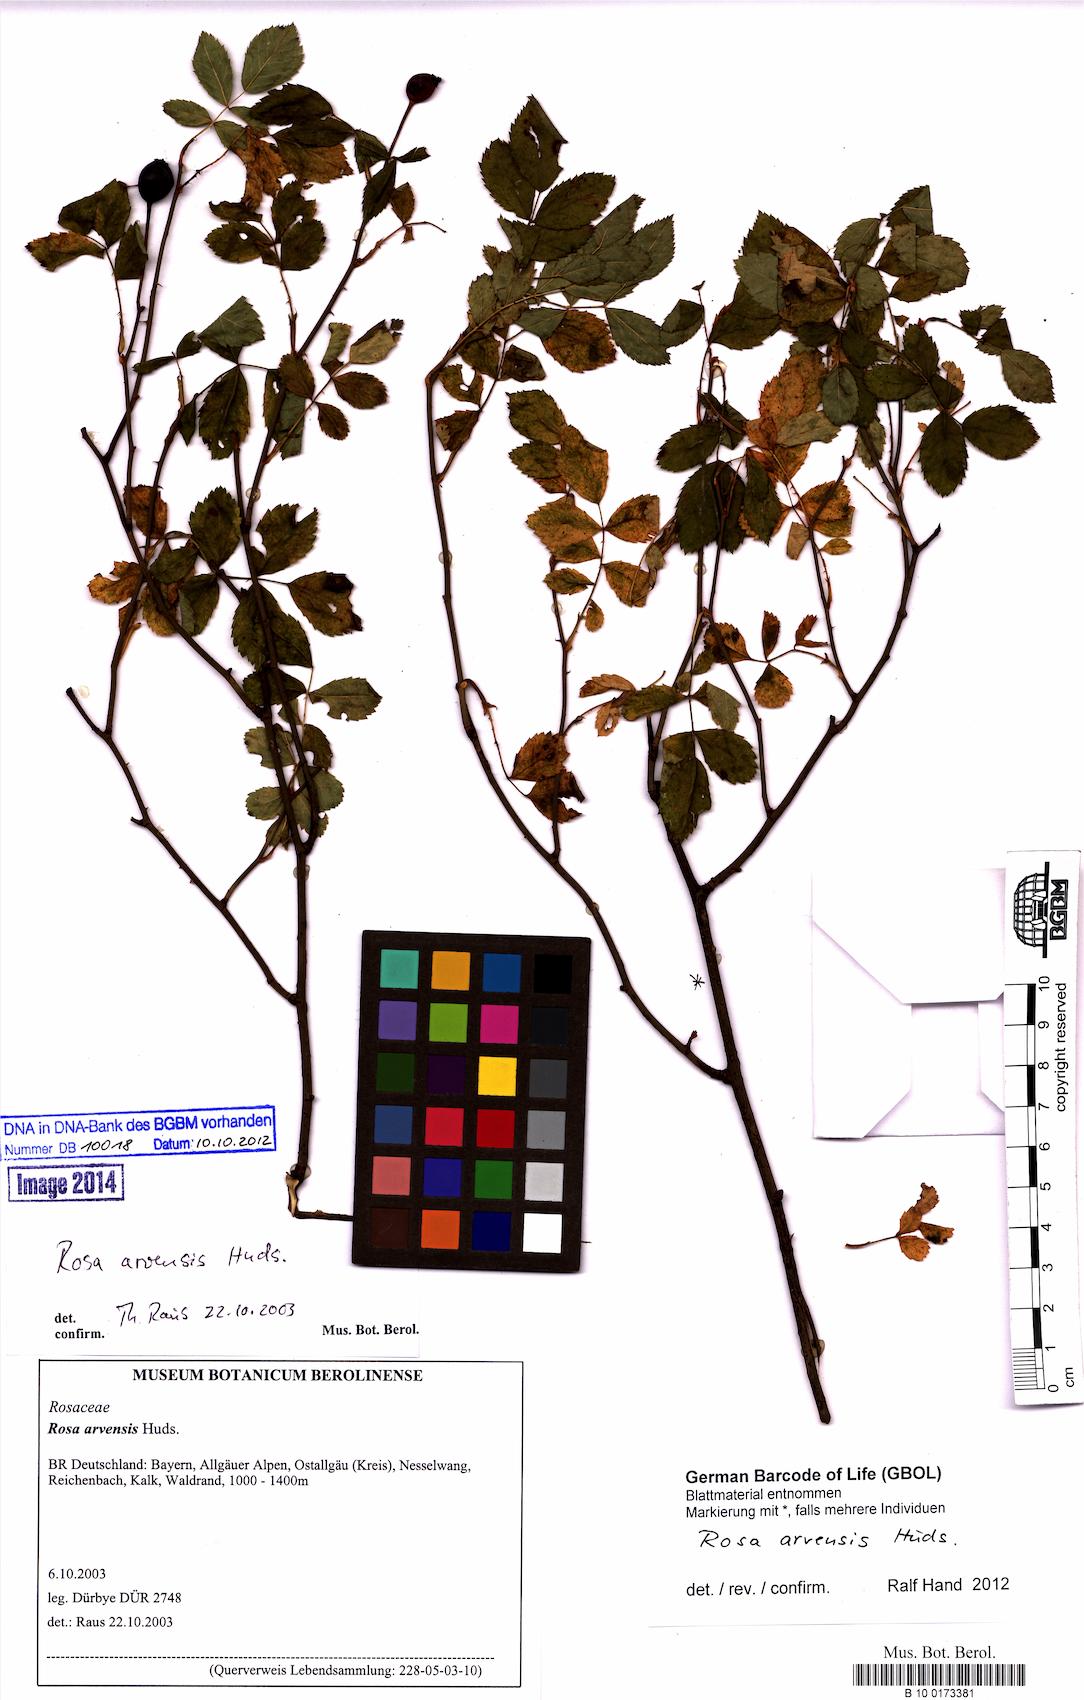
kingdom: Plantae
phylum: Tracheophyta
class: Magnoliopsida
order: Rosales
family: Rosaceae
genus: Rosa
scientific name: Rosa arvensis
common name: Field rose
